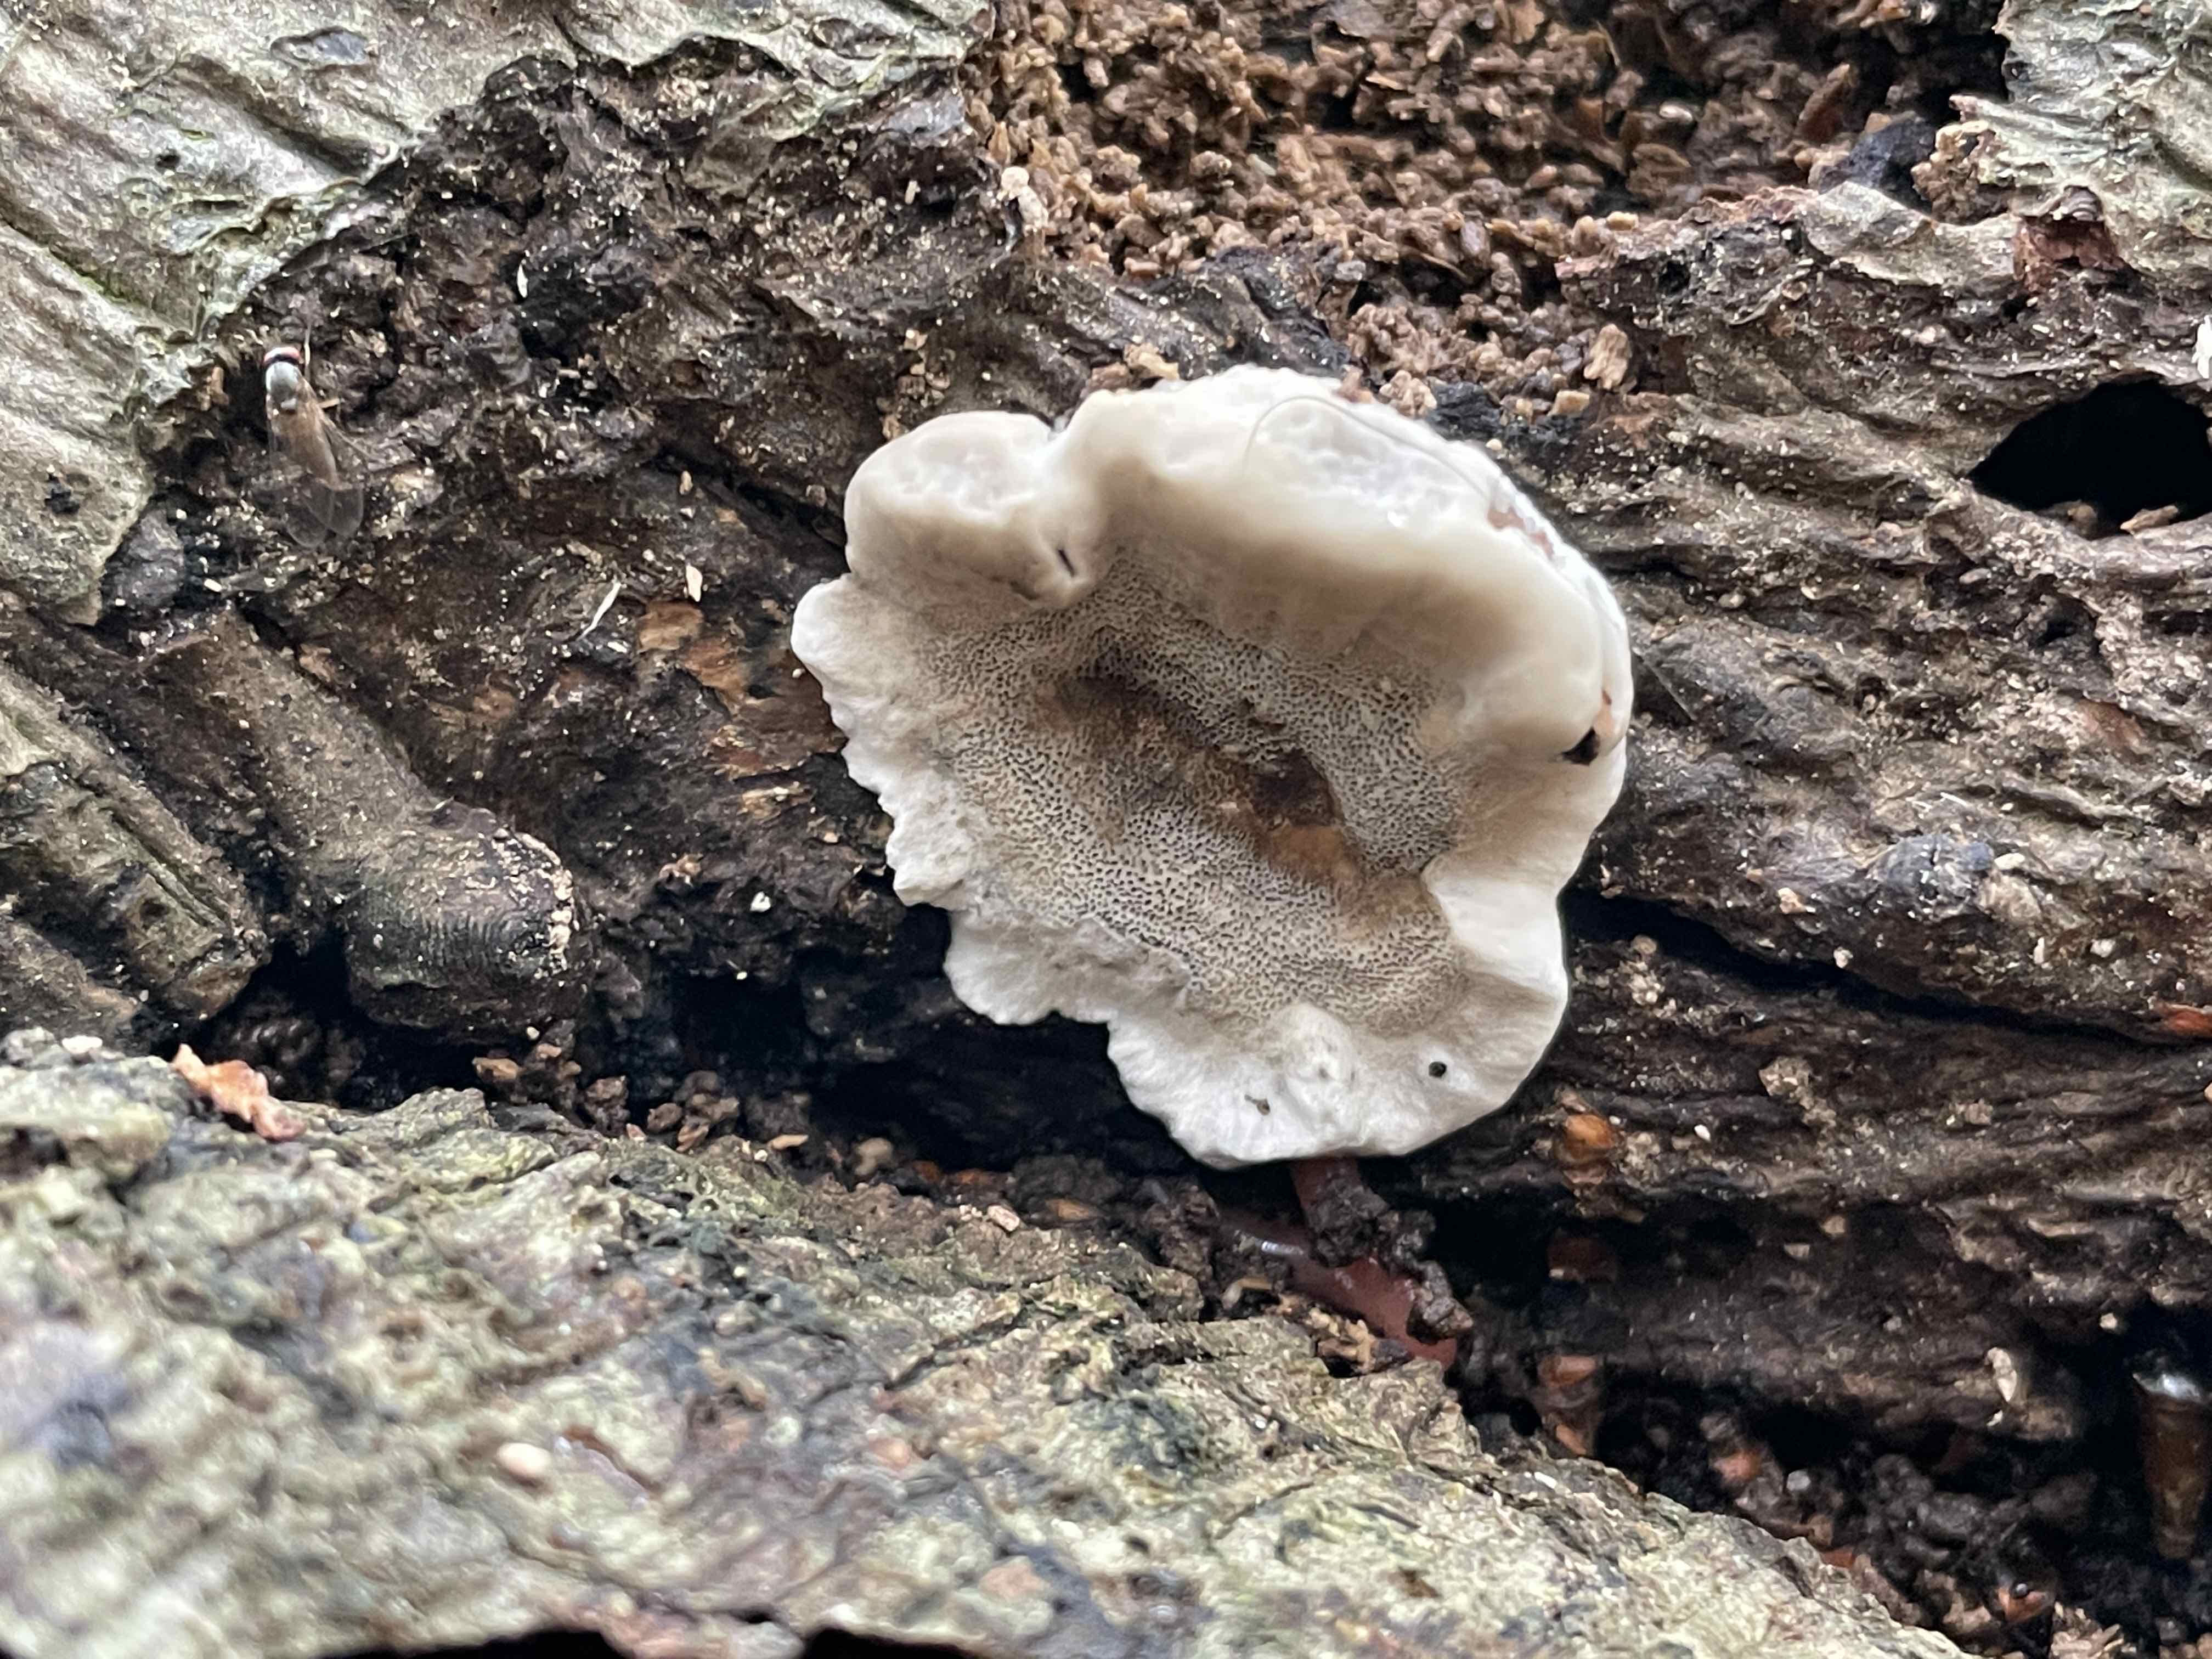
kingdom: Fungi
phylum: Basidiomycota
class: Agaricomycetes
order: Polyporales
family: Phanerochaetaceae
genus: Bjerkandera
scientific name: Bjerkandera adusta
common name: sveden sodporesvamp
